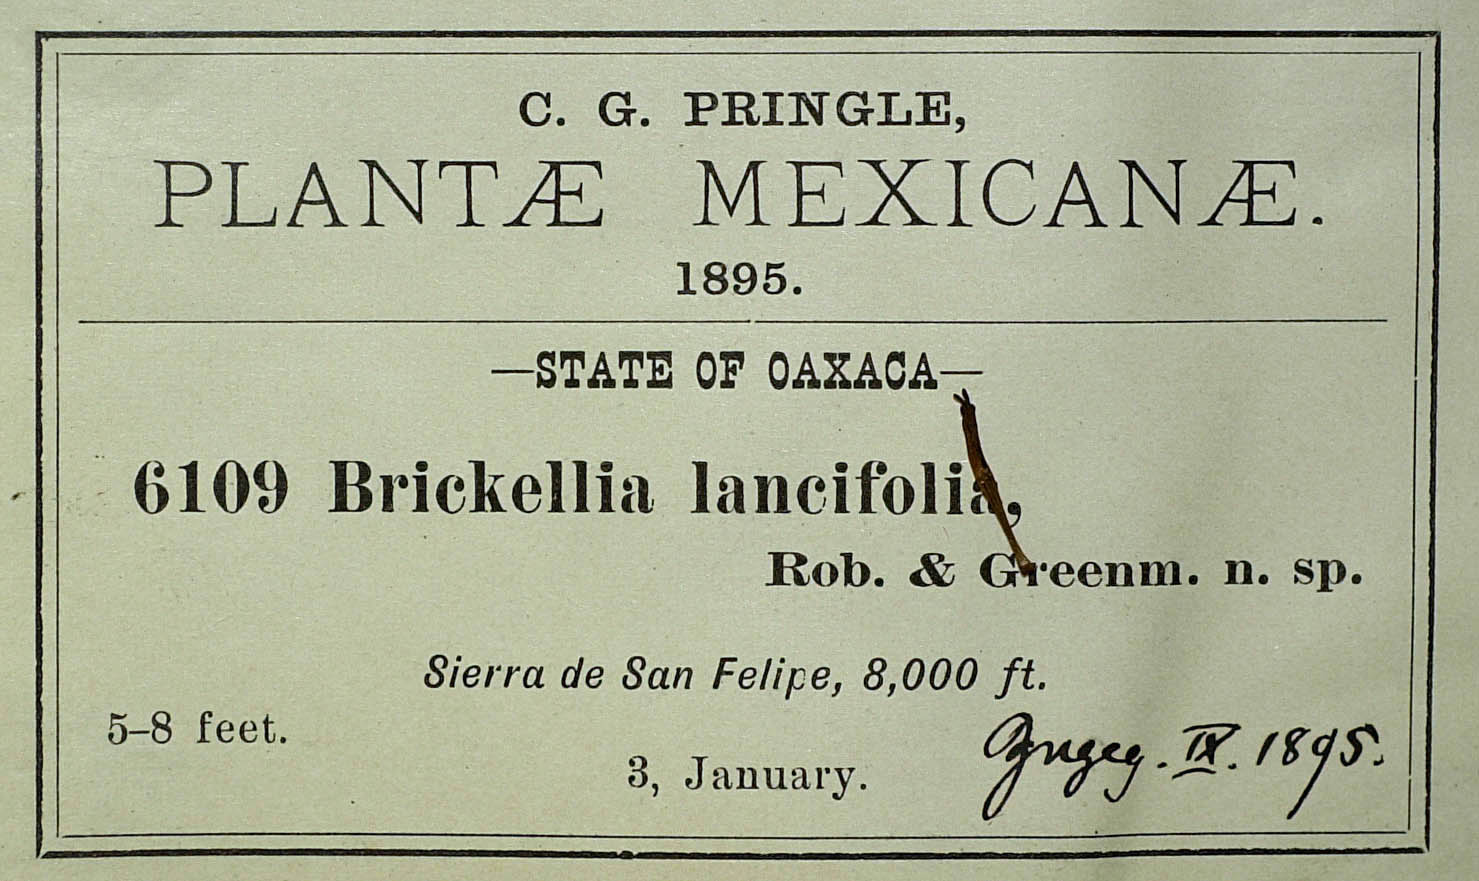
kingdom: Plantae
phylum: Tracheophyta
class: Magnoliopsida
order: Asterales
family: Asteraceae
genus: Brickellia
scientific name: Brickellia pendula
